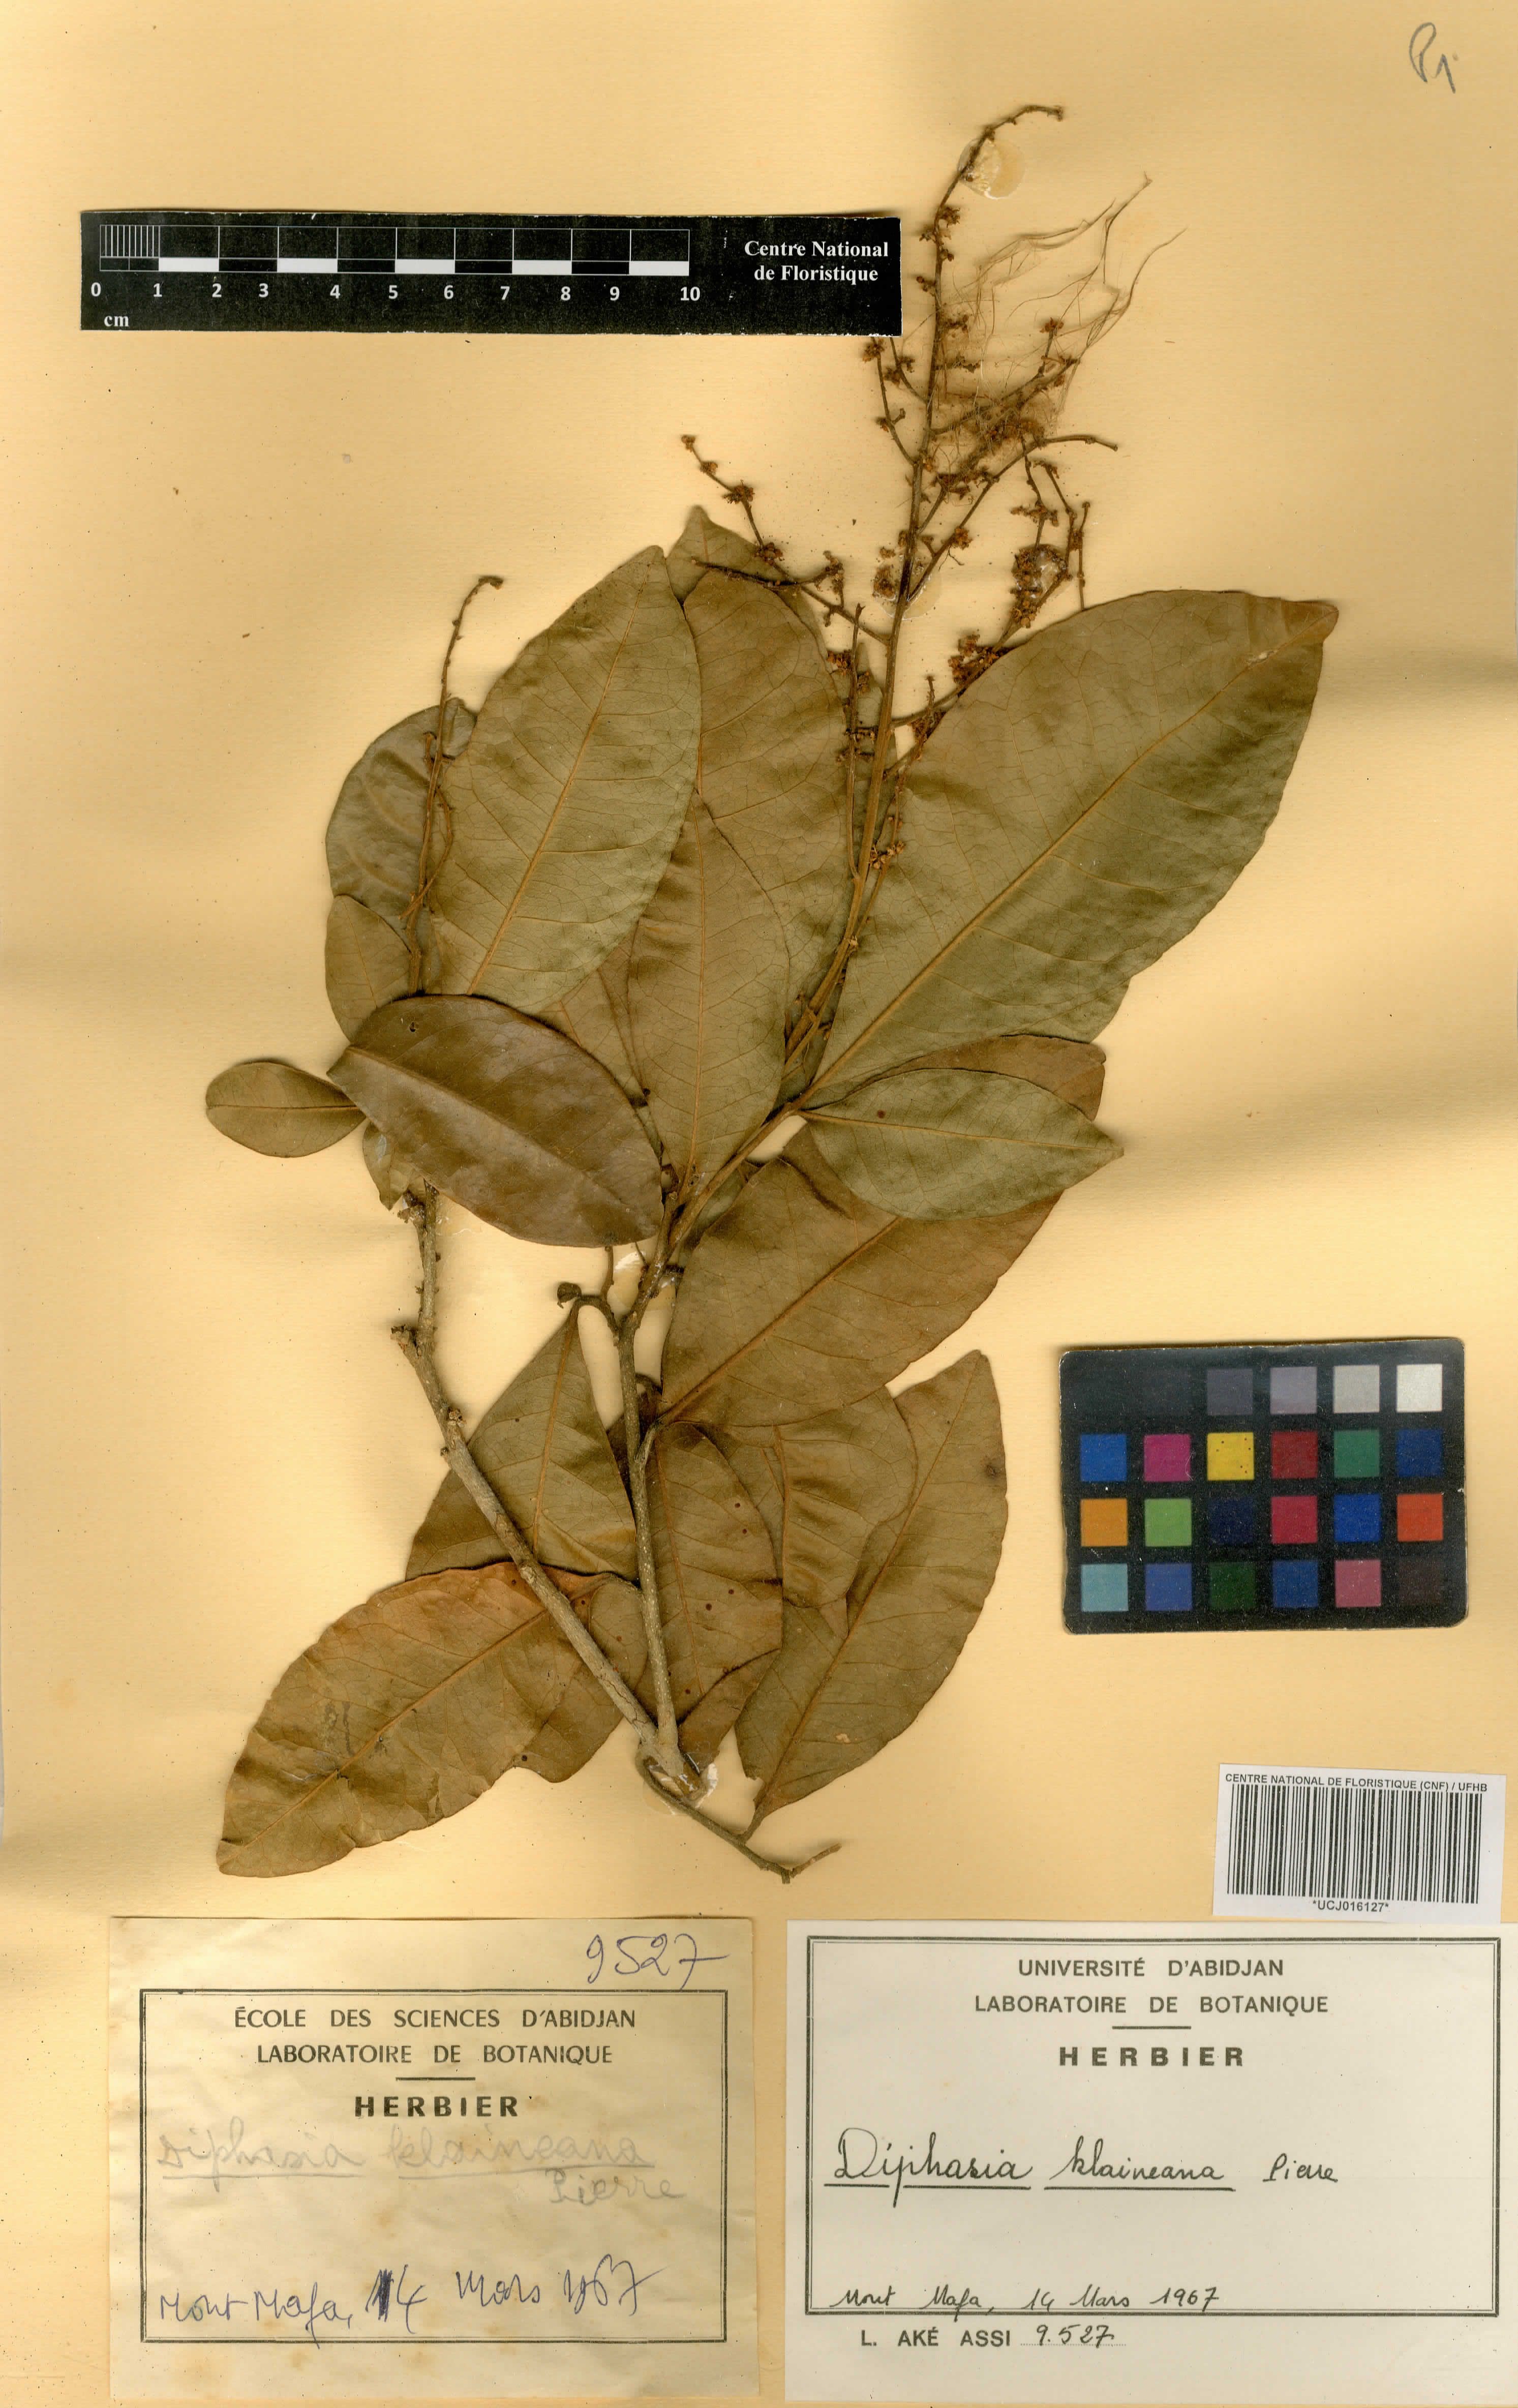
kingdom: Plantae
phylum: Tracheophyta
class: Magnoliopsida
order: Sapindales
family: Rutaceae
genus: Vepris
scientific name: Vepris hiernii
